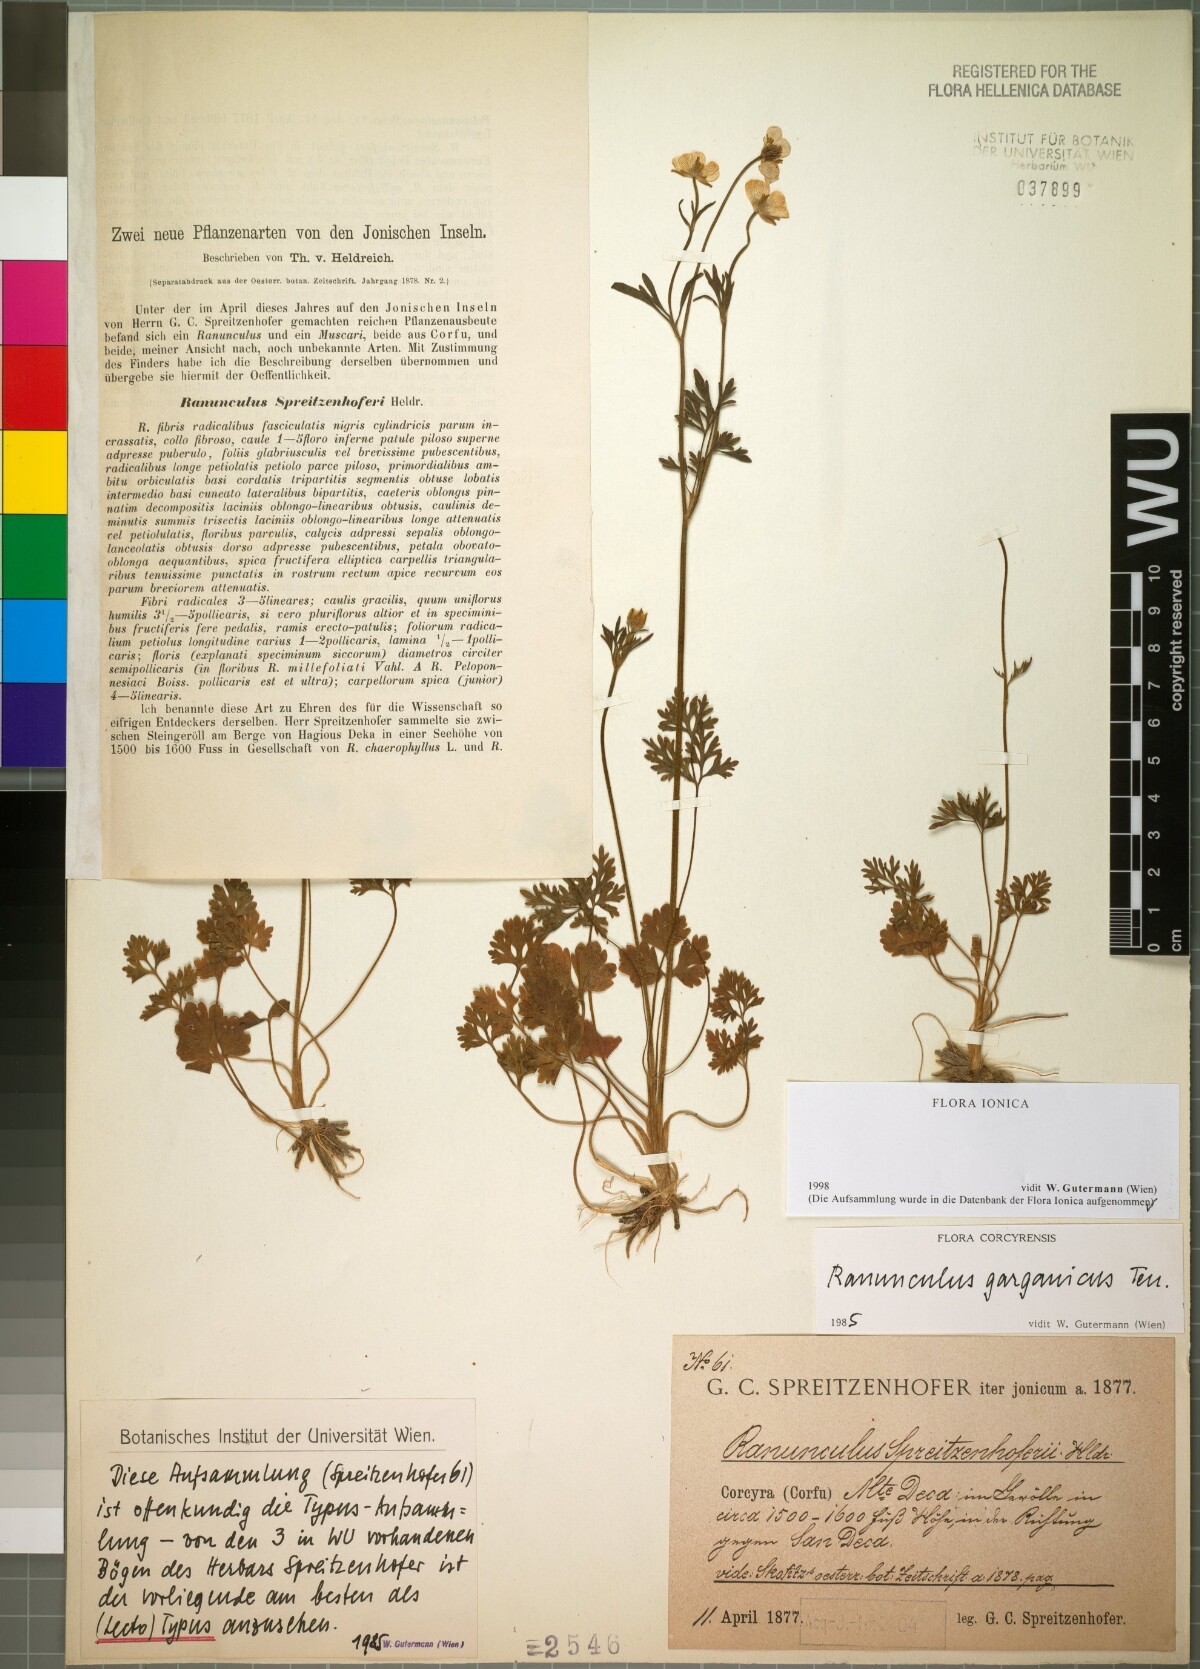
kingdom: Plantae
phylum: Tracheophyta
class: Magnoliopsida
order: Ranunculales
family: Ranunculaceae
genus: Ranunculus
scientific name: Ranunculus garganicus
